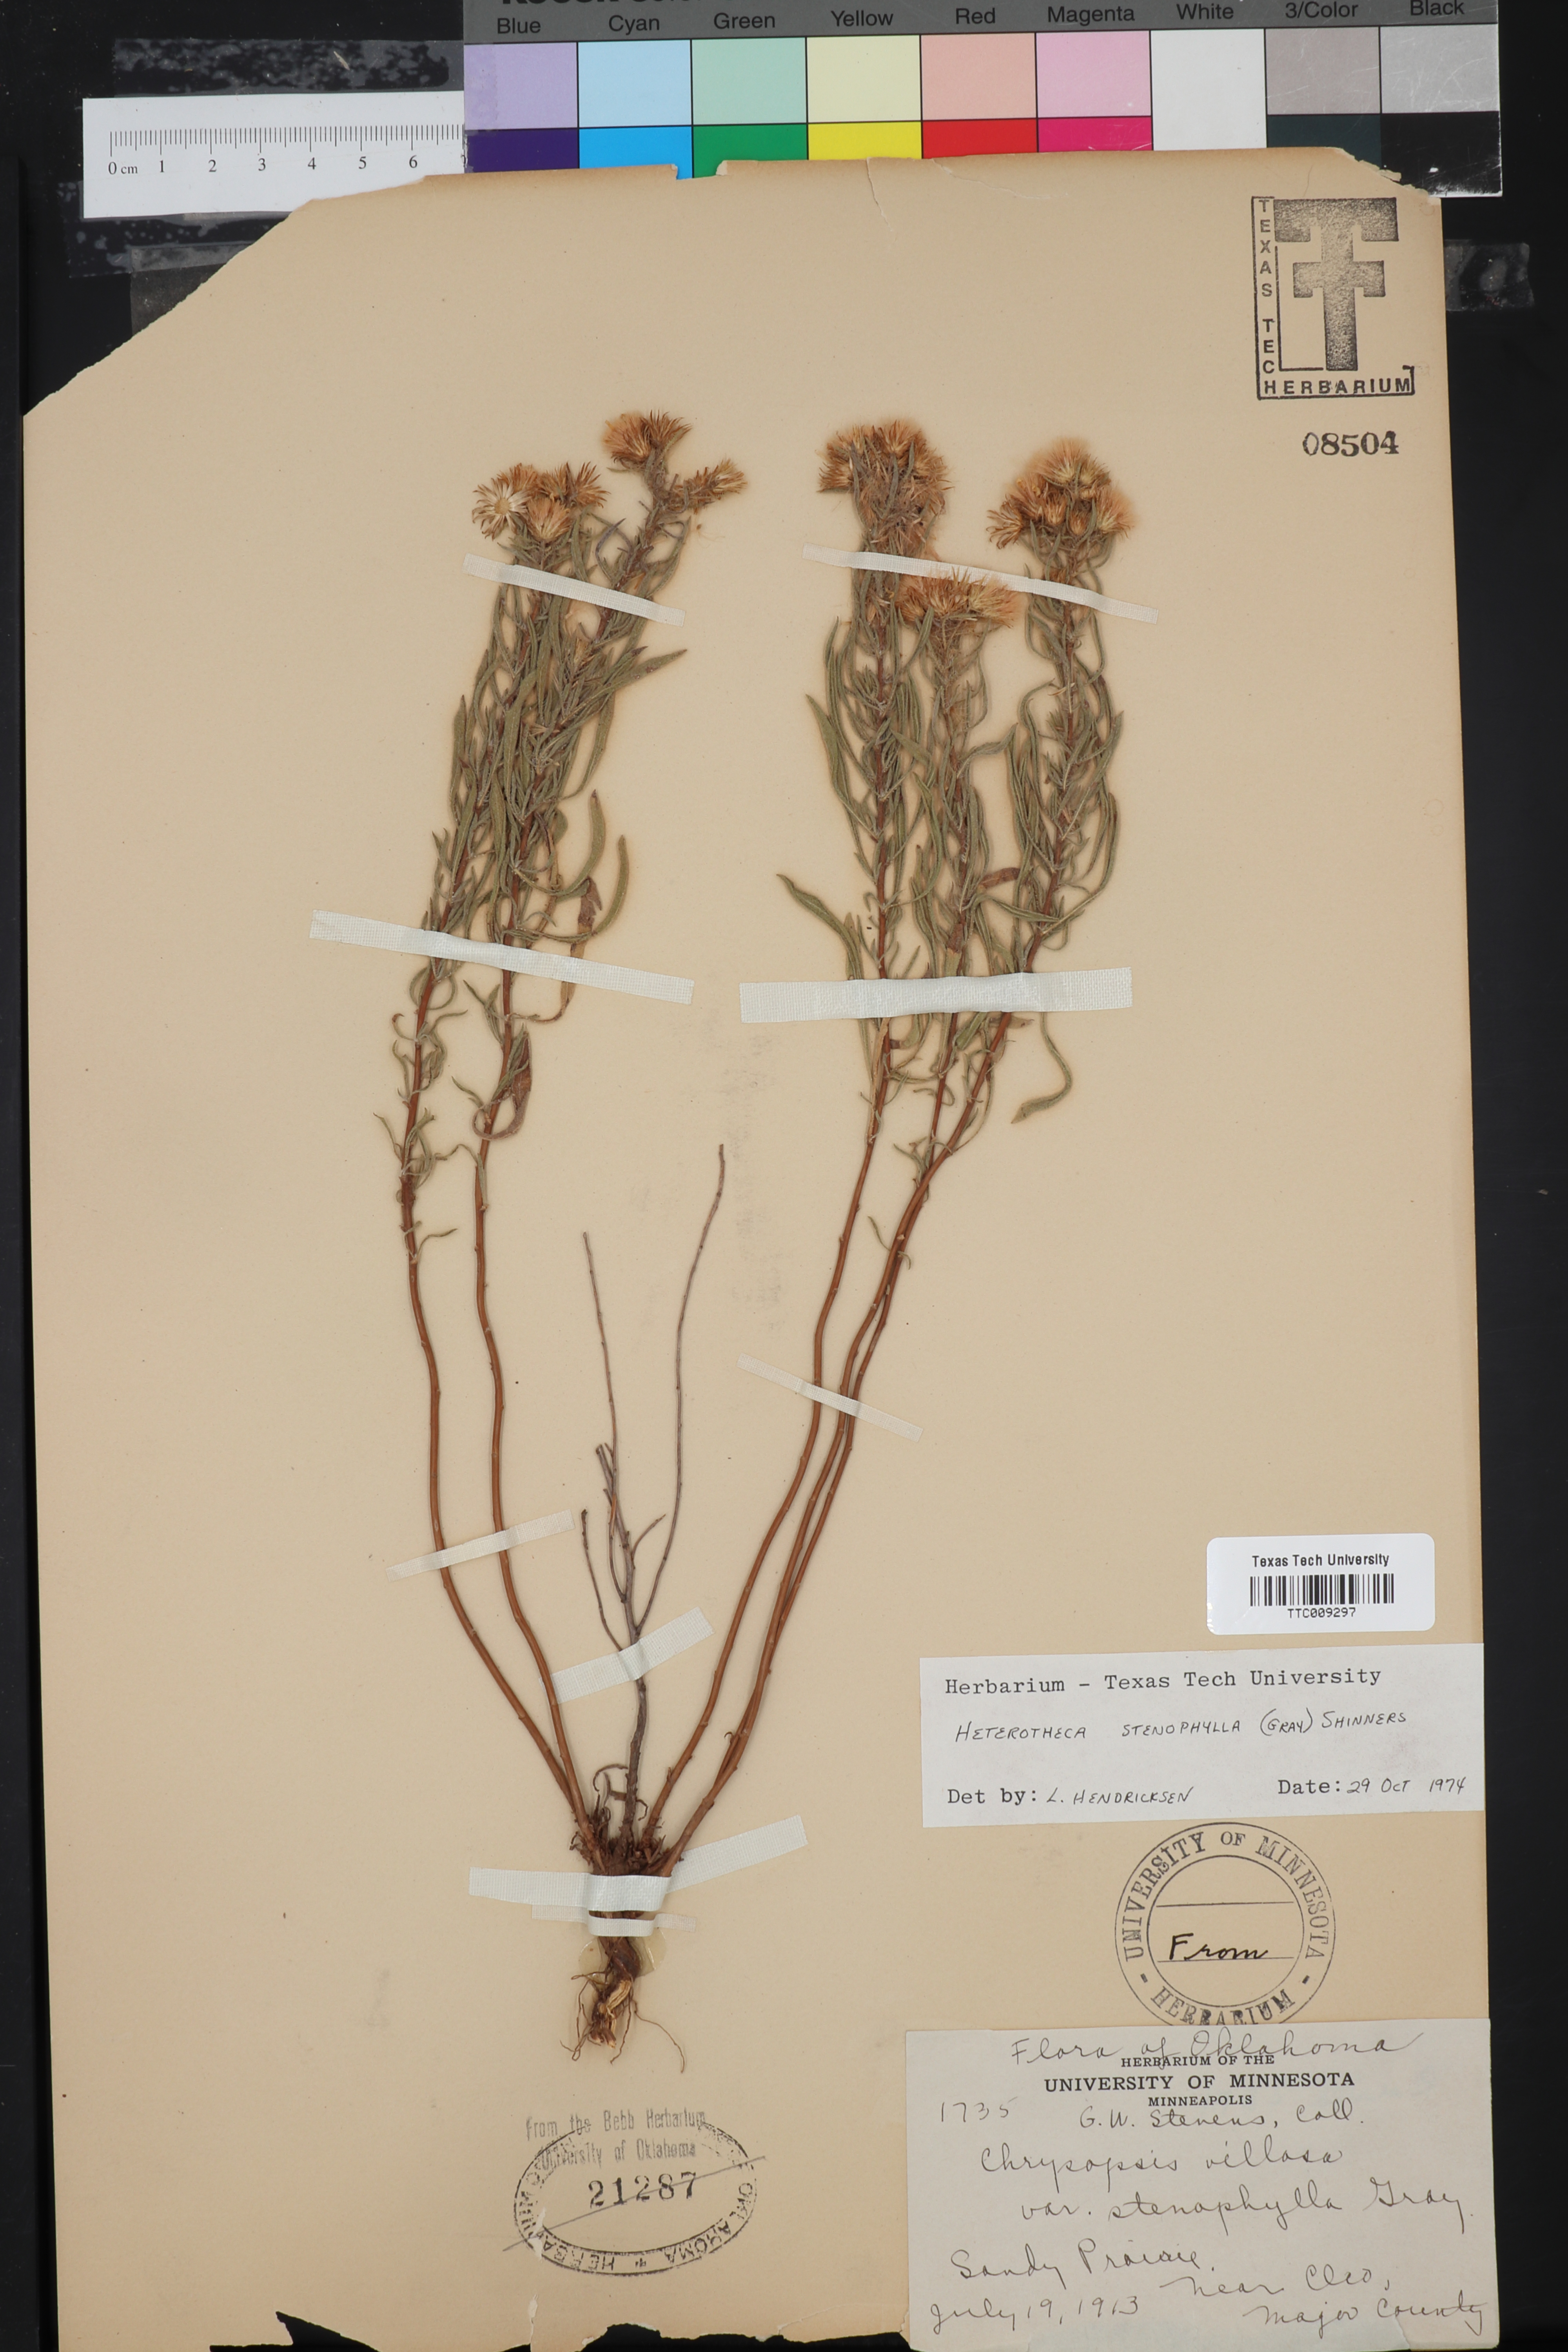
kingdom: Plantae
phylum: Tracheophyta
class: Magnoliopsida
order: Asterales
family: Asteraceae
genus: Heterotheca
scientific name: Heterotheca stenophylla
